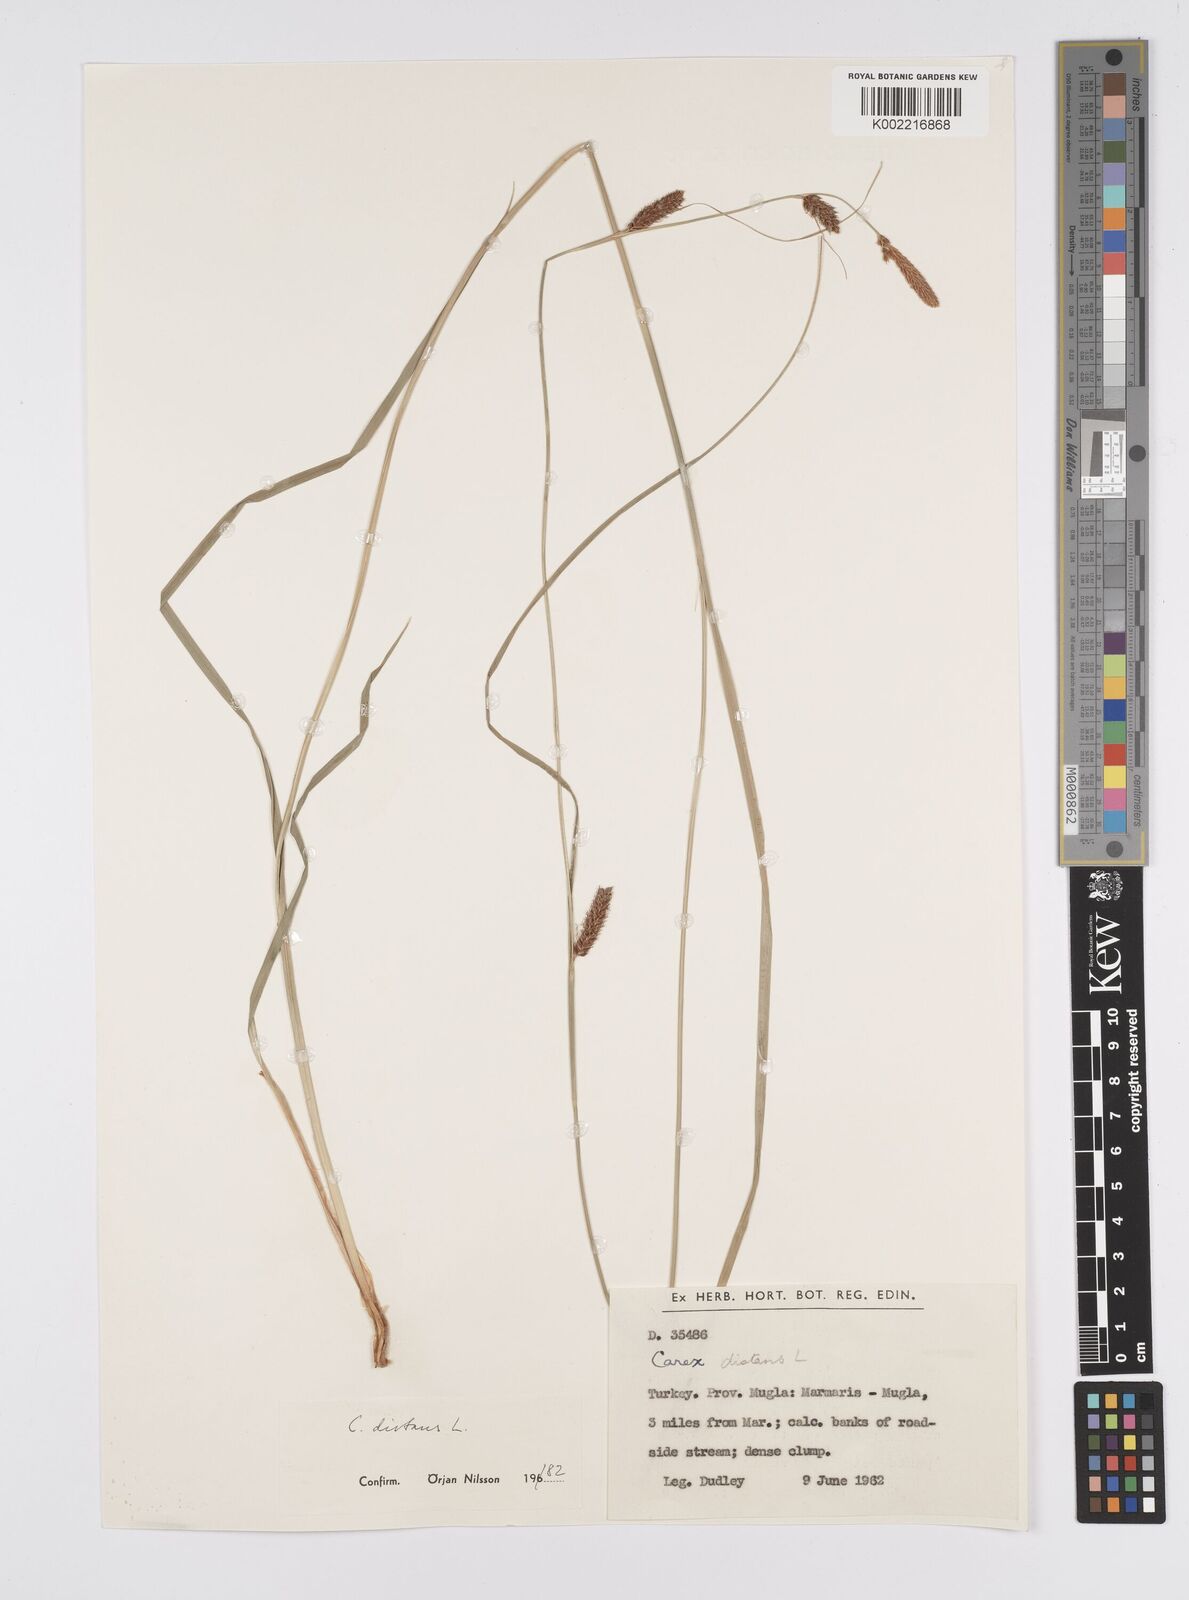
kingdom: Plantae
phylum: Tracheophyta
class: Liliopsida
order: Poales
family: Cyperaceae
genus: Carex
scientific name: Carex distans
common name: Distant sedge
